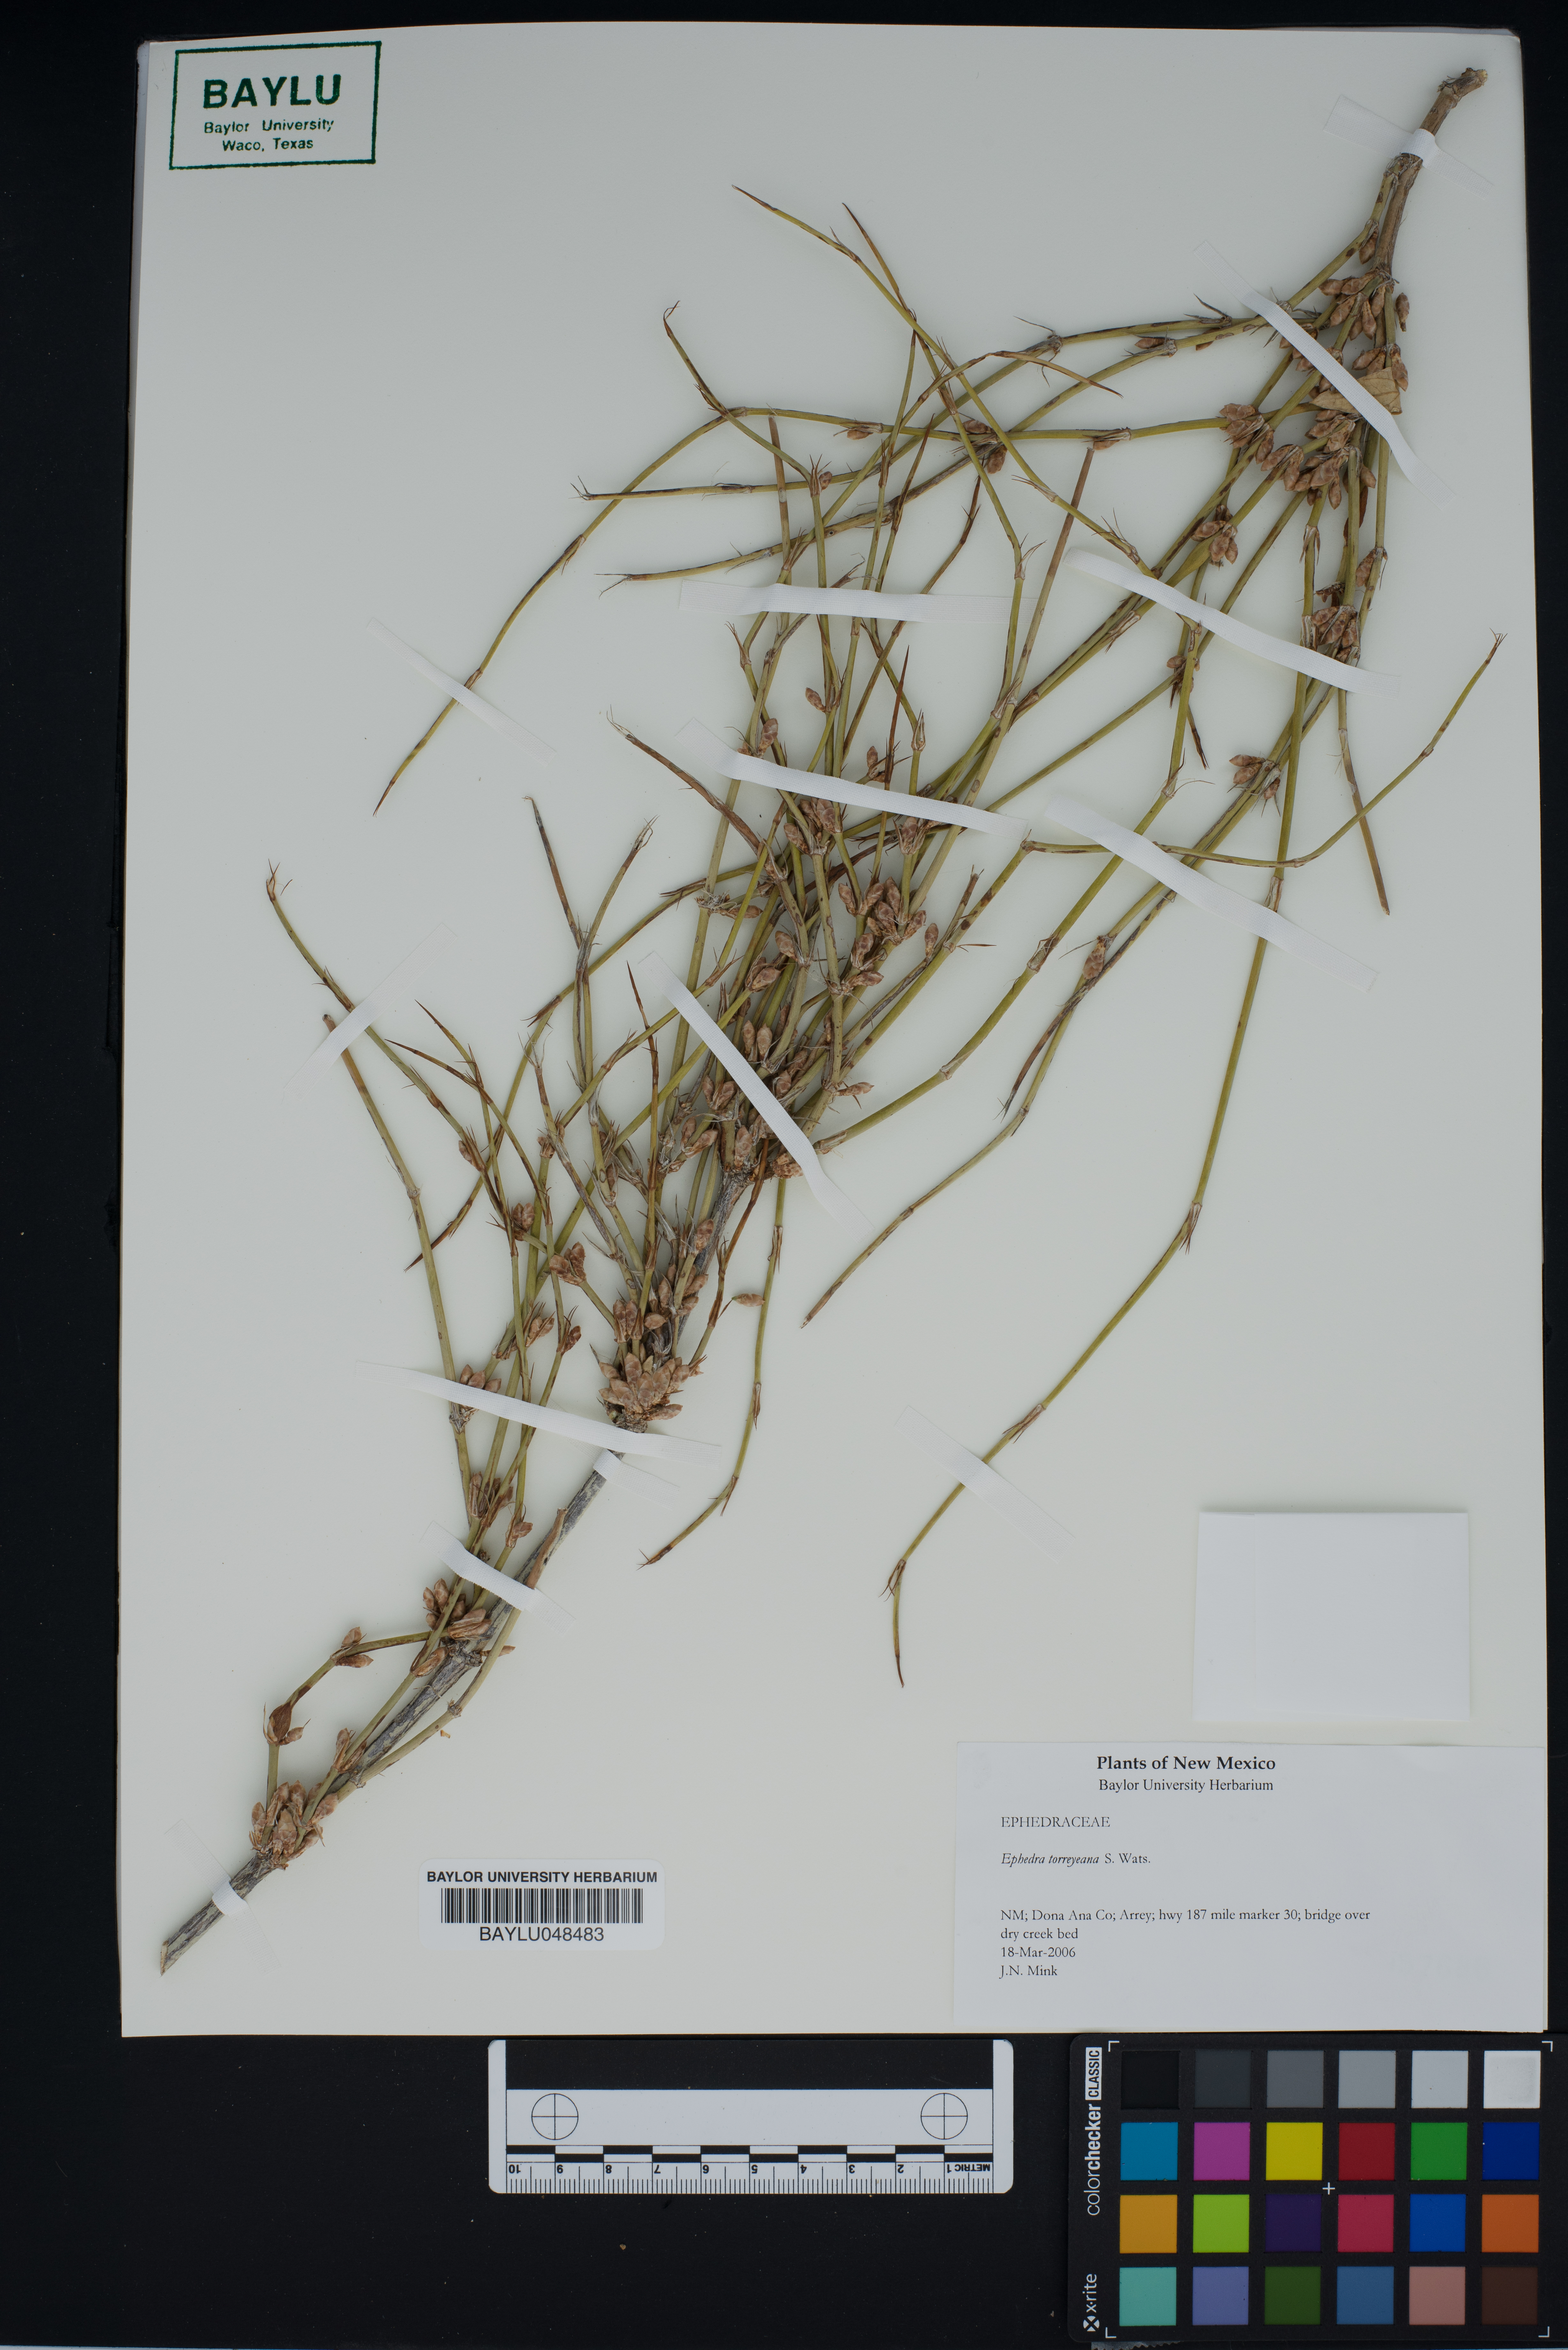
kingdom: Plantae
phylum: Tracheophyta
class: Gnetopsida
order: Ephedrales
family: Ephedraceae
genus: Ephedra
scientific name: Ephedra torreyana
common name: Torrey ephedra
